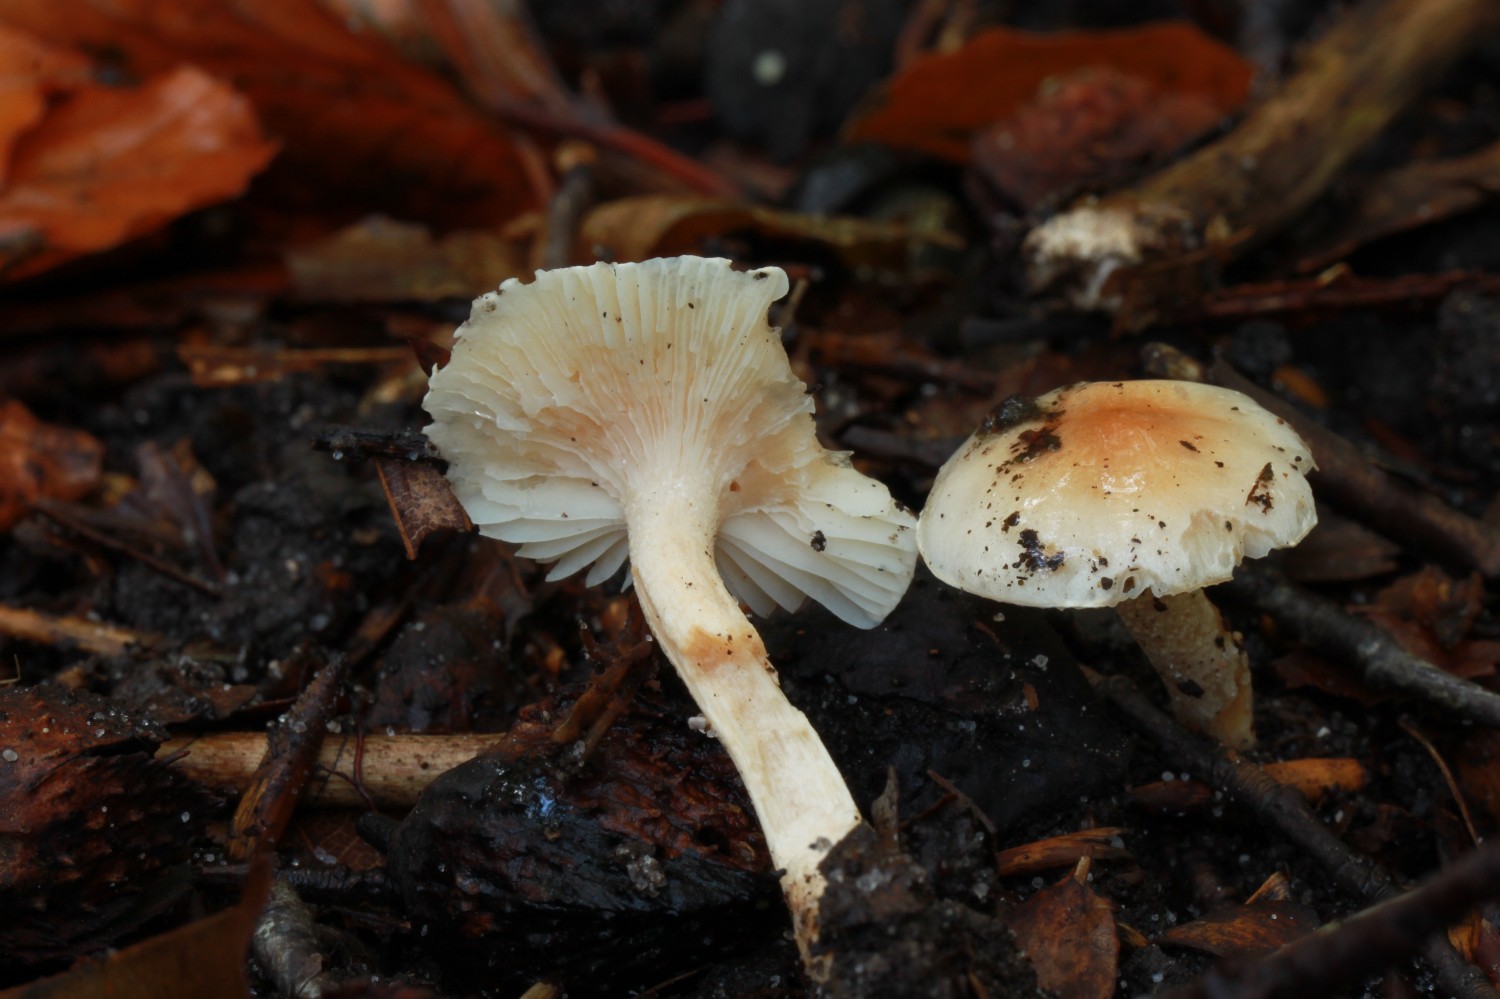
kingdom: Fungi
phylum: Basidiomycota
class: Agaricomycetes
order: Agaricales
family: Hygrophoraceae
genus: Hygrophorus
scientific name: Hygrophorus unicolor
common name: orangeøjet sneglehat
